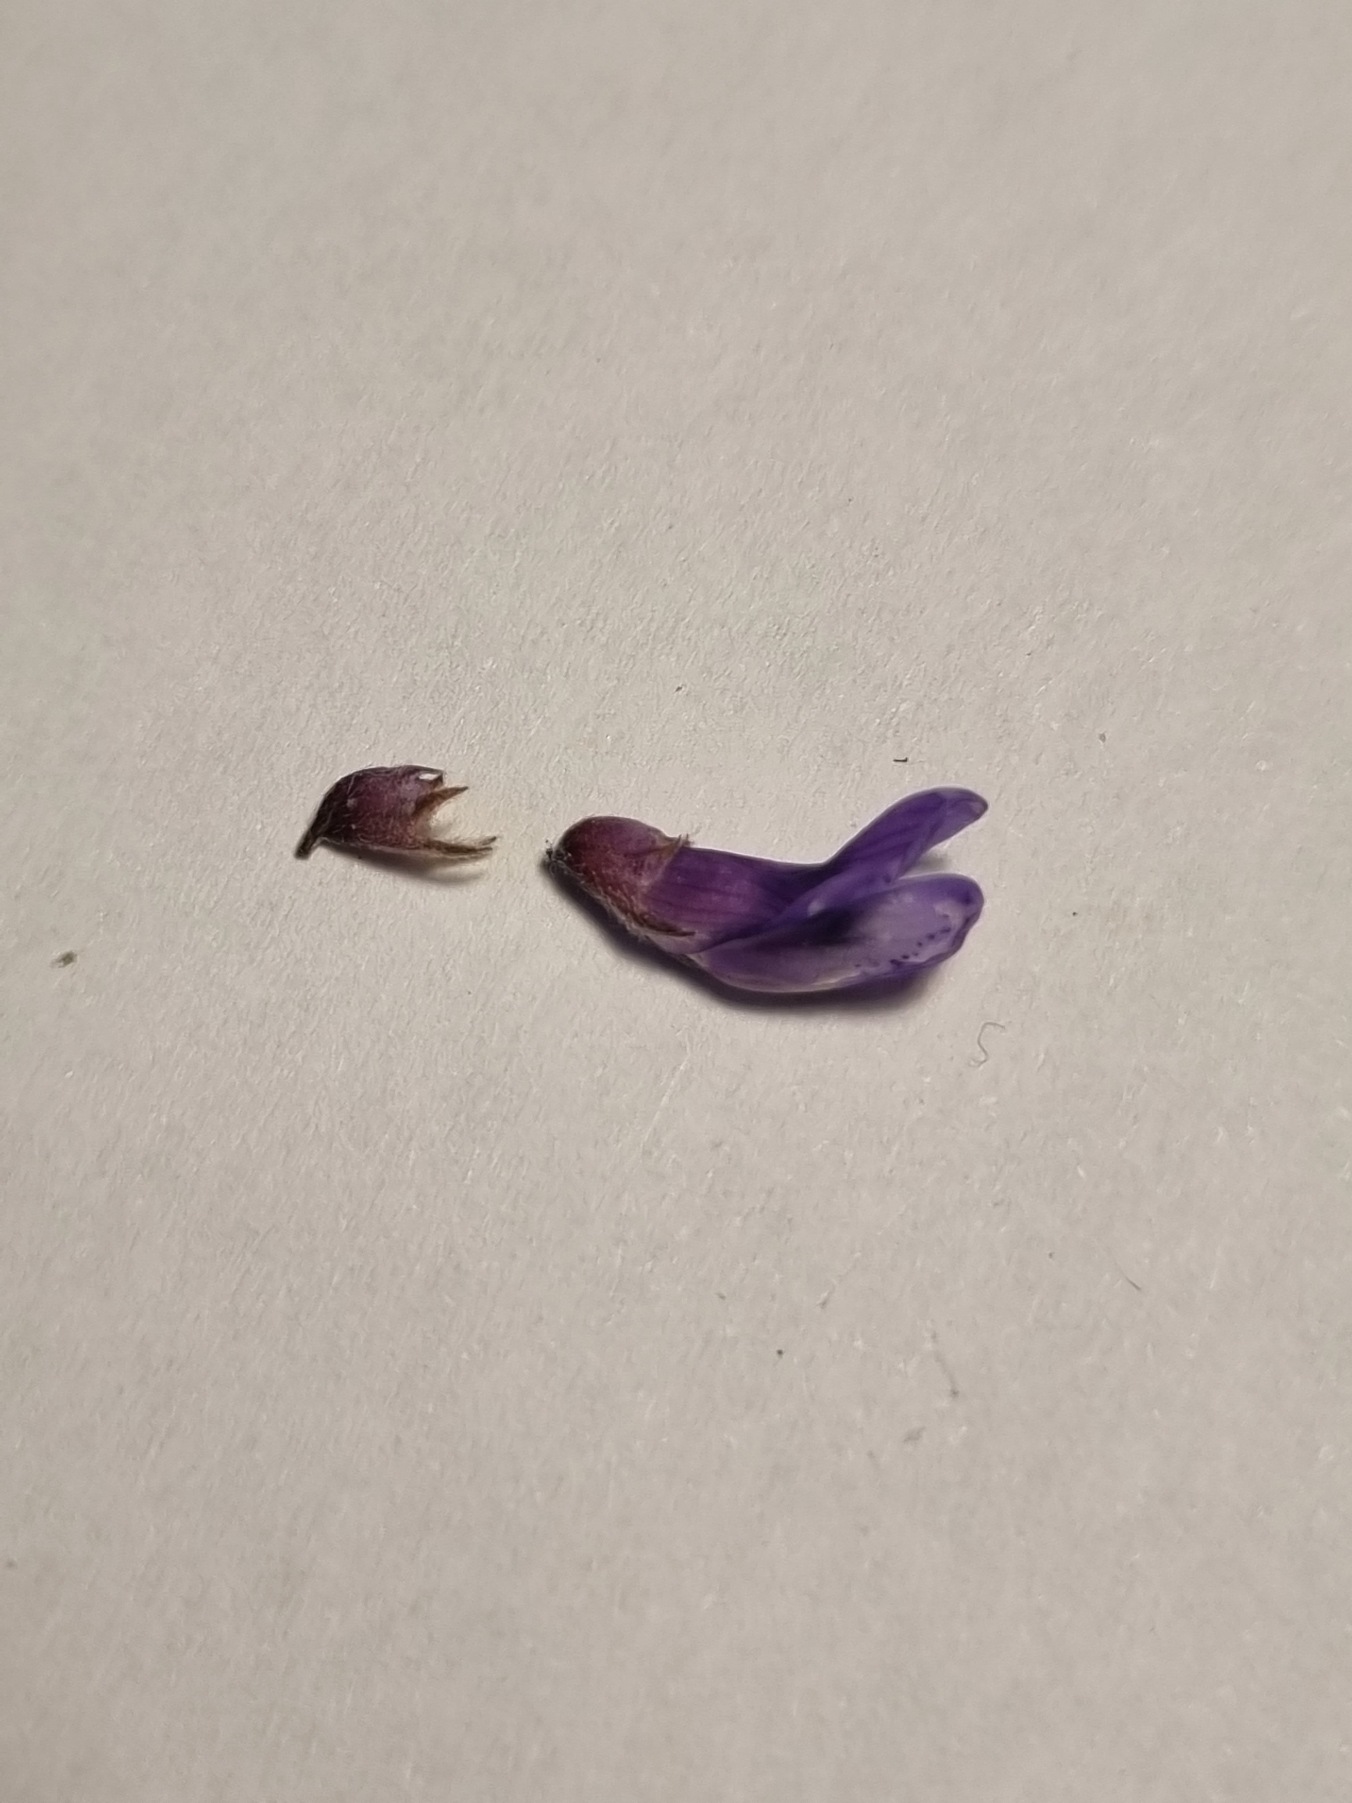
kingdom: Plantae
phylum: Tracheophyta
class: Magnoliopsida
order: Fabales
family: Fabaceae
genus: Vicia
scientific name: Vicia cracca
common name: Muse-vikke
